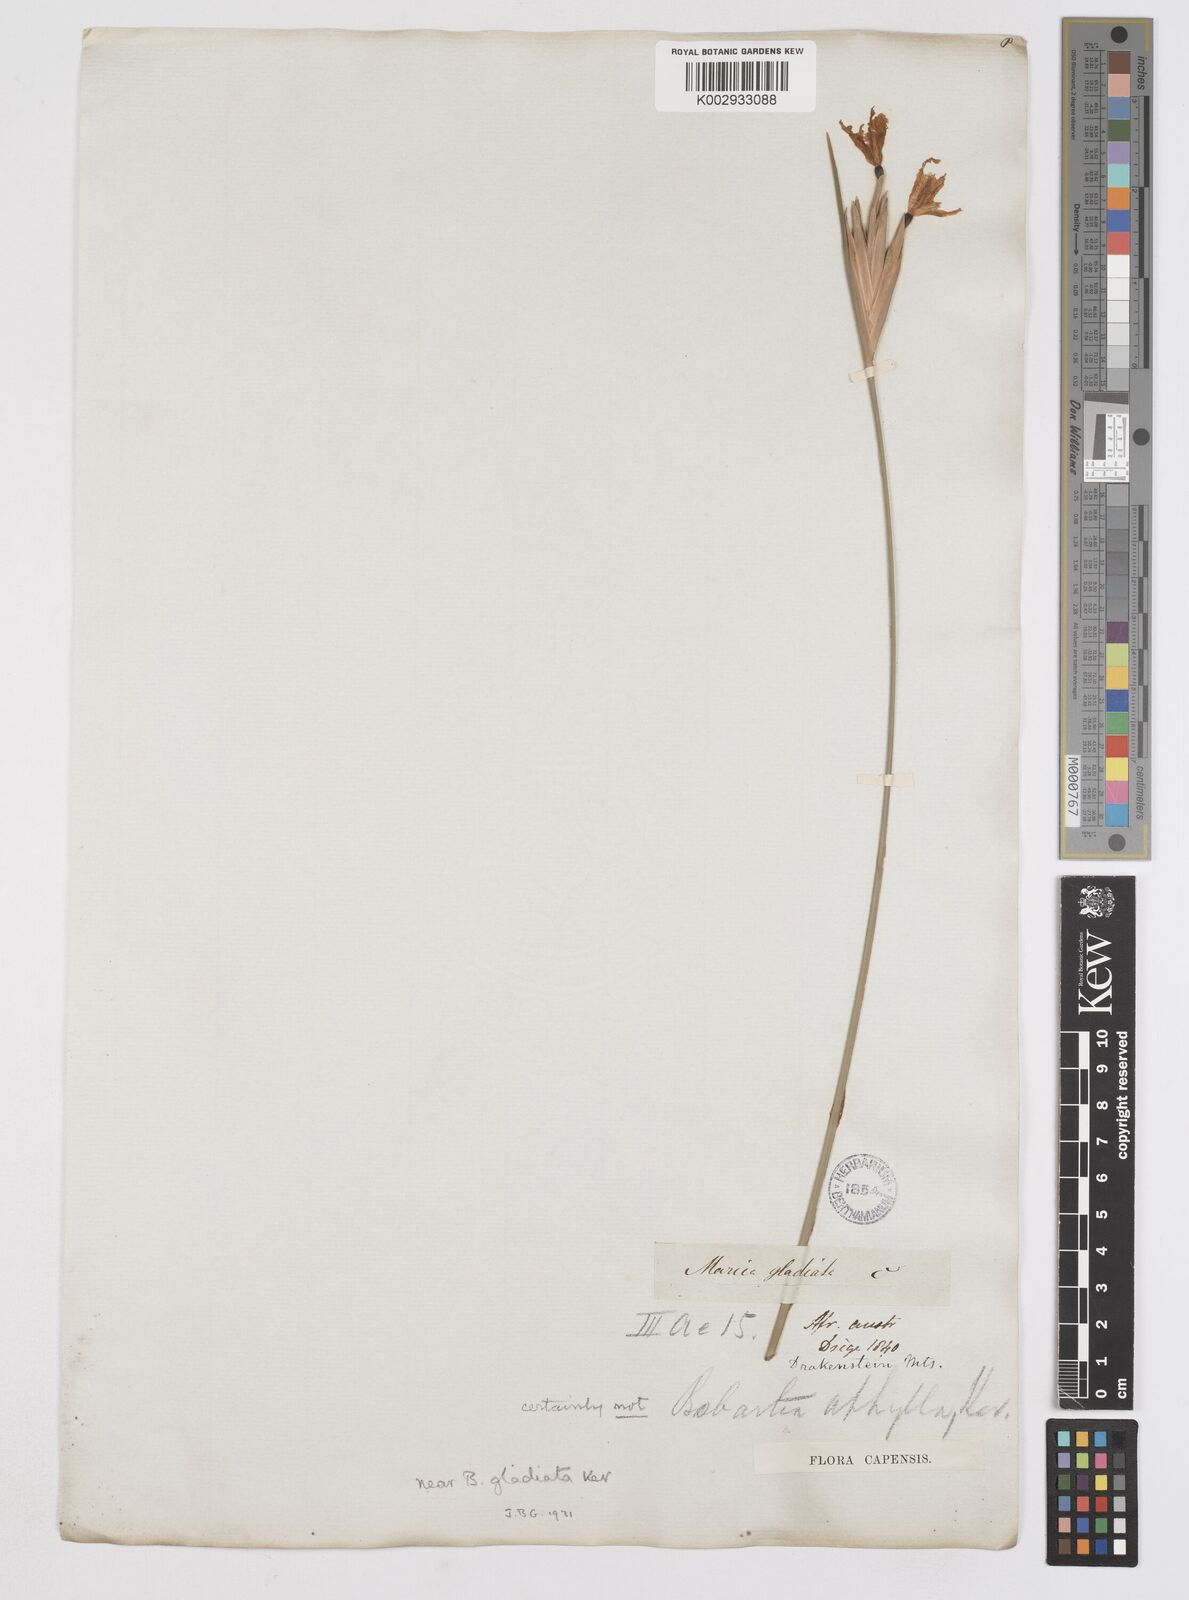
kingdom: Plantae
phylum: Tracheophyta
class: Liliopsida
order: Asparagales
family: Iridaceae
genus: Bobartia
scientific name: Bobartia gladiata
